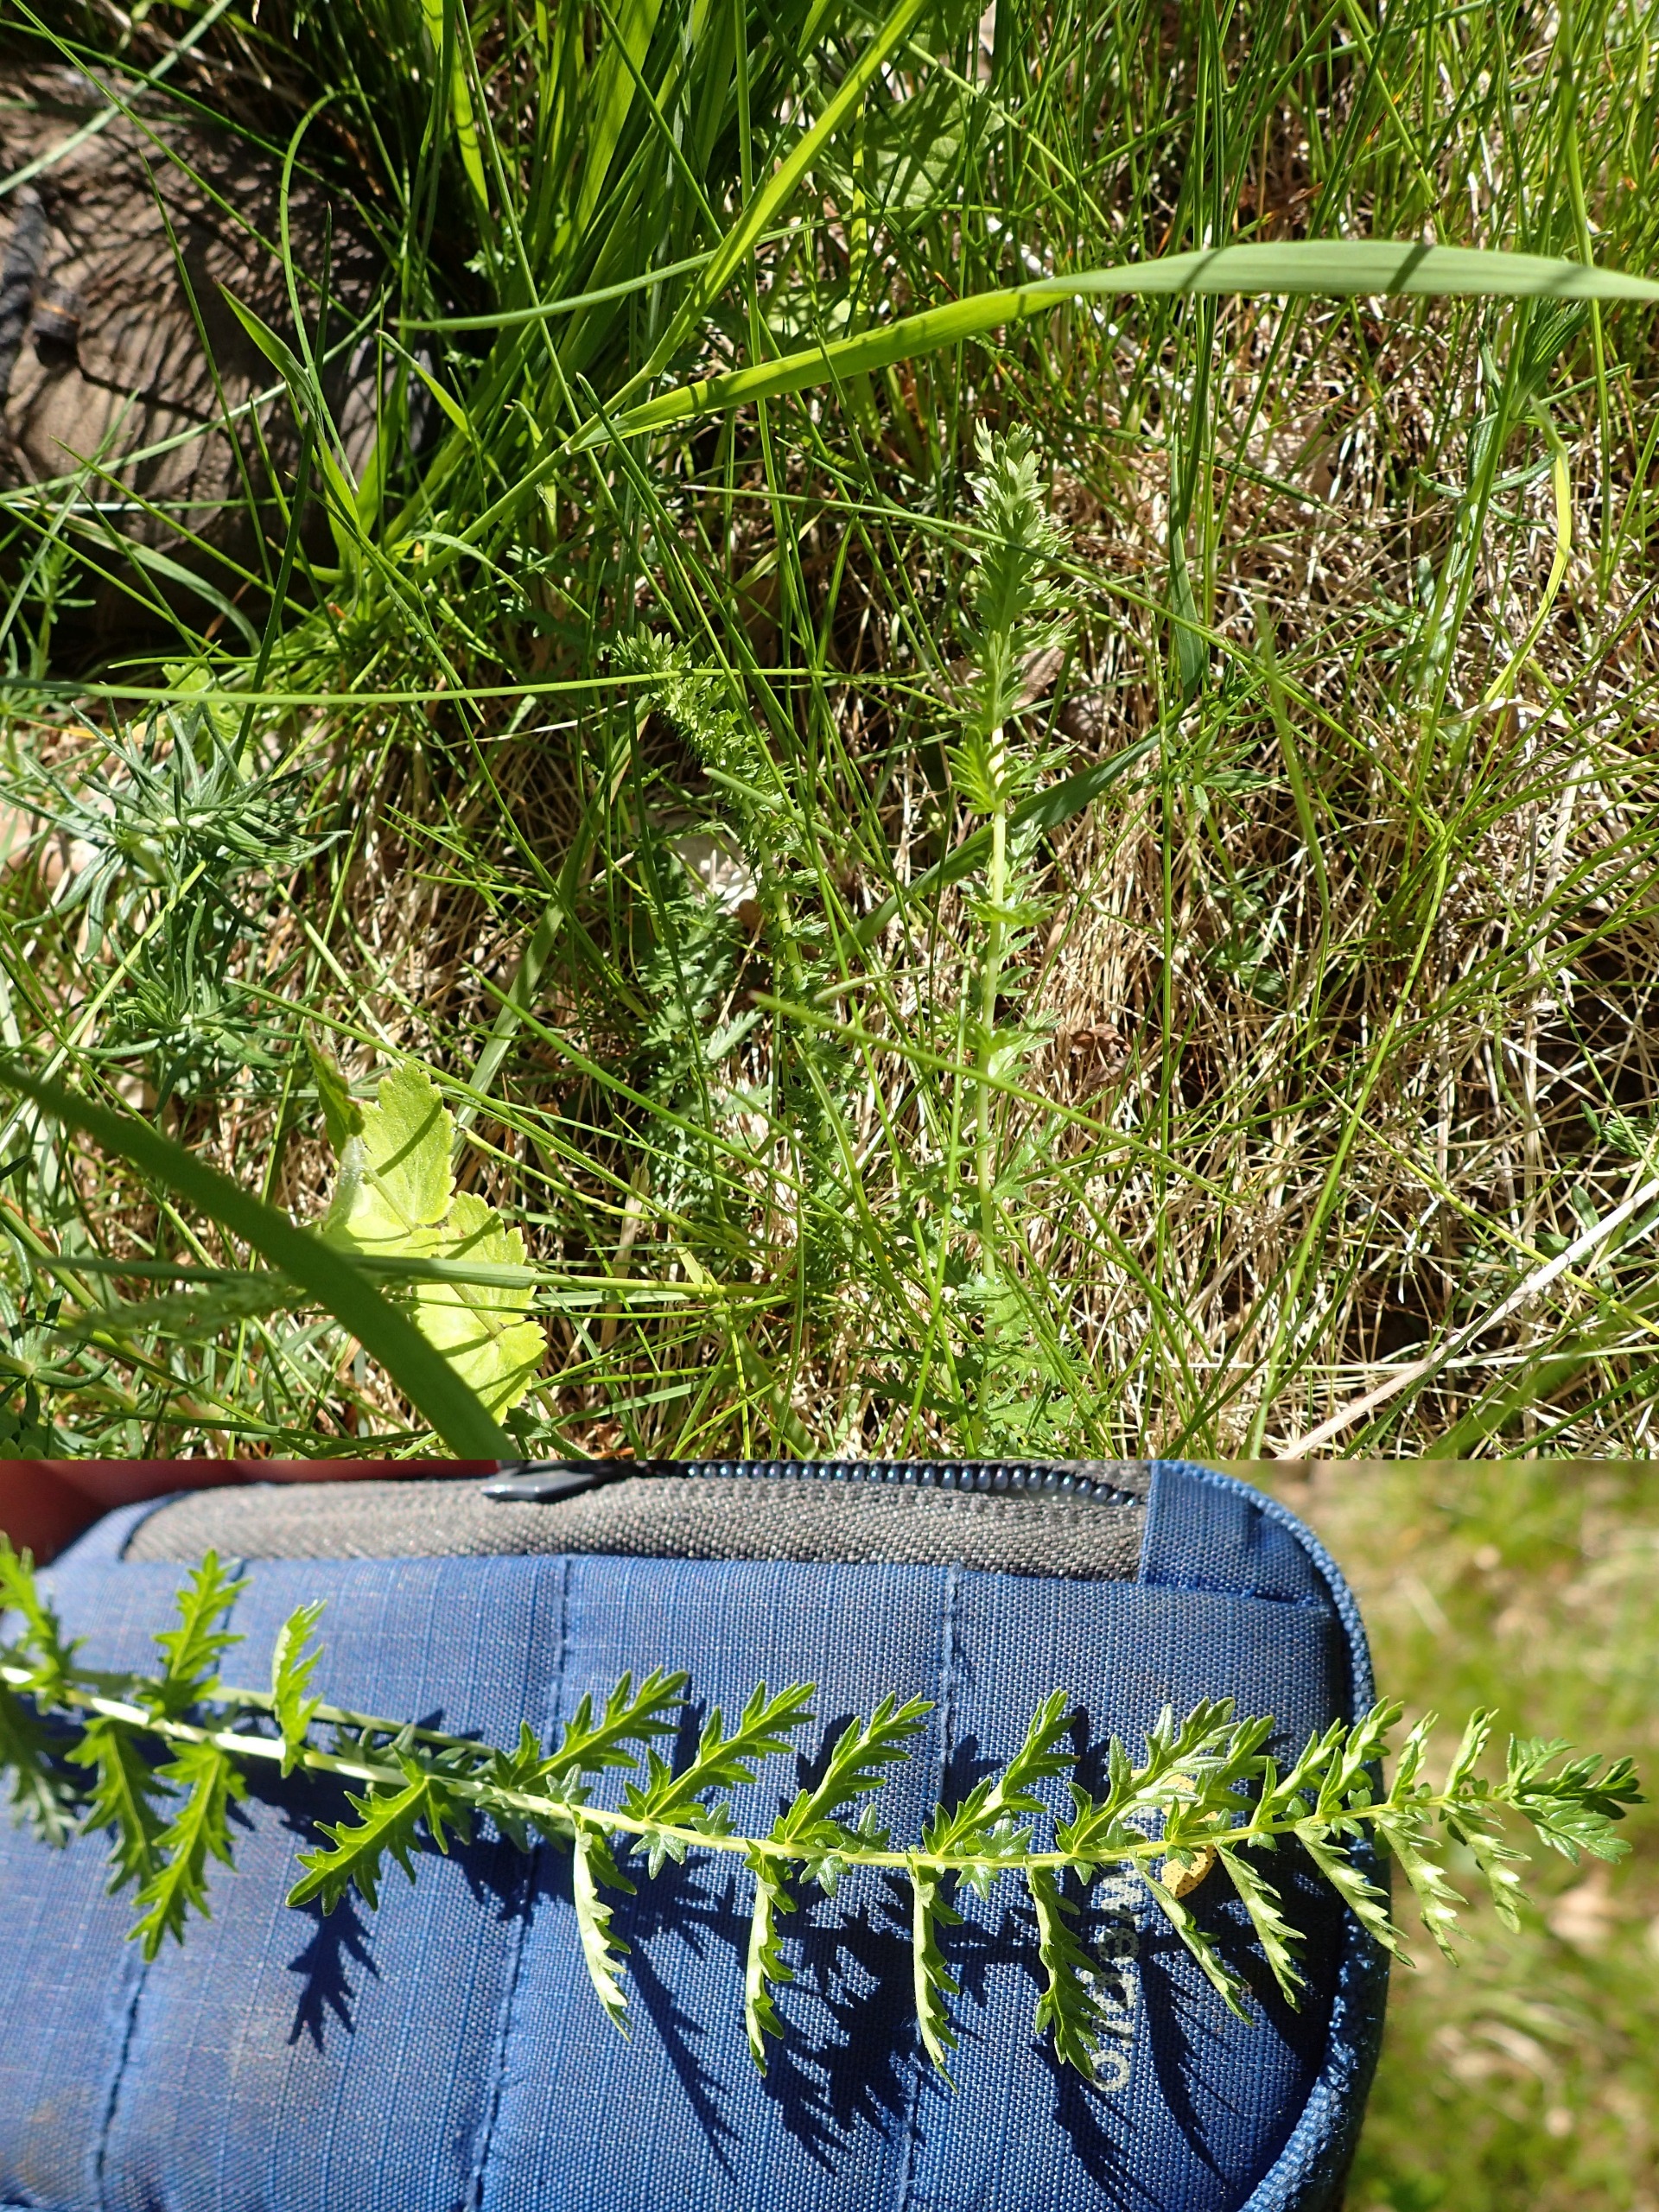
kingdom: Plantae
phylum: Tracheophyta
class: Magnoliopsida
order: Rosales
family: Rosaceae
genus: Filipendula
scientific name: Filipendula vulgaris
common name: Knoldet mjødurt
